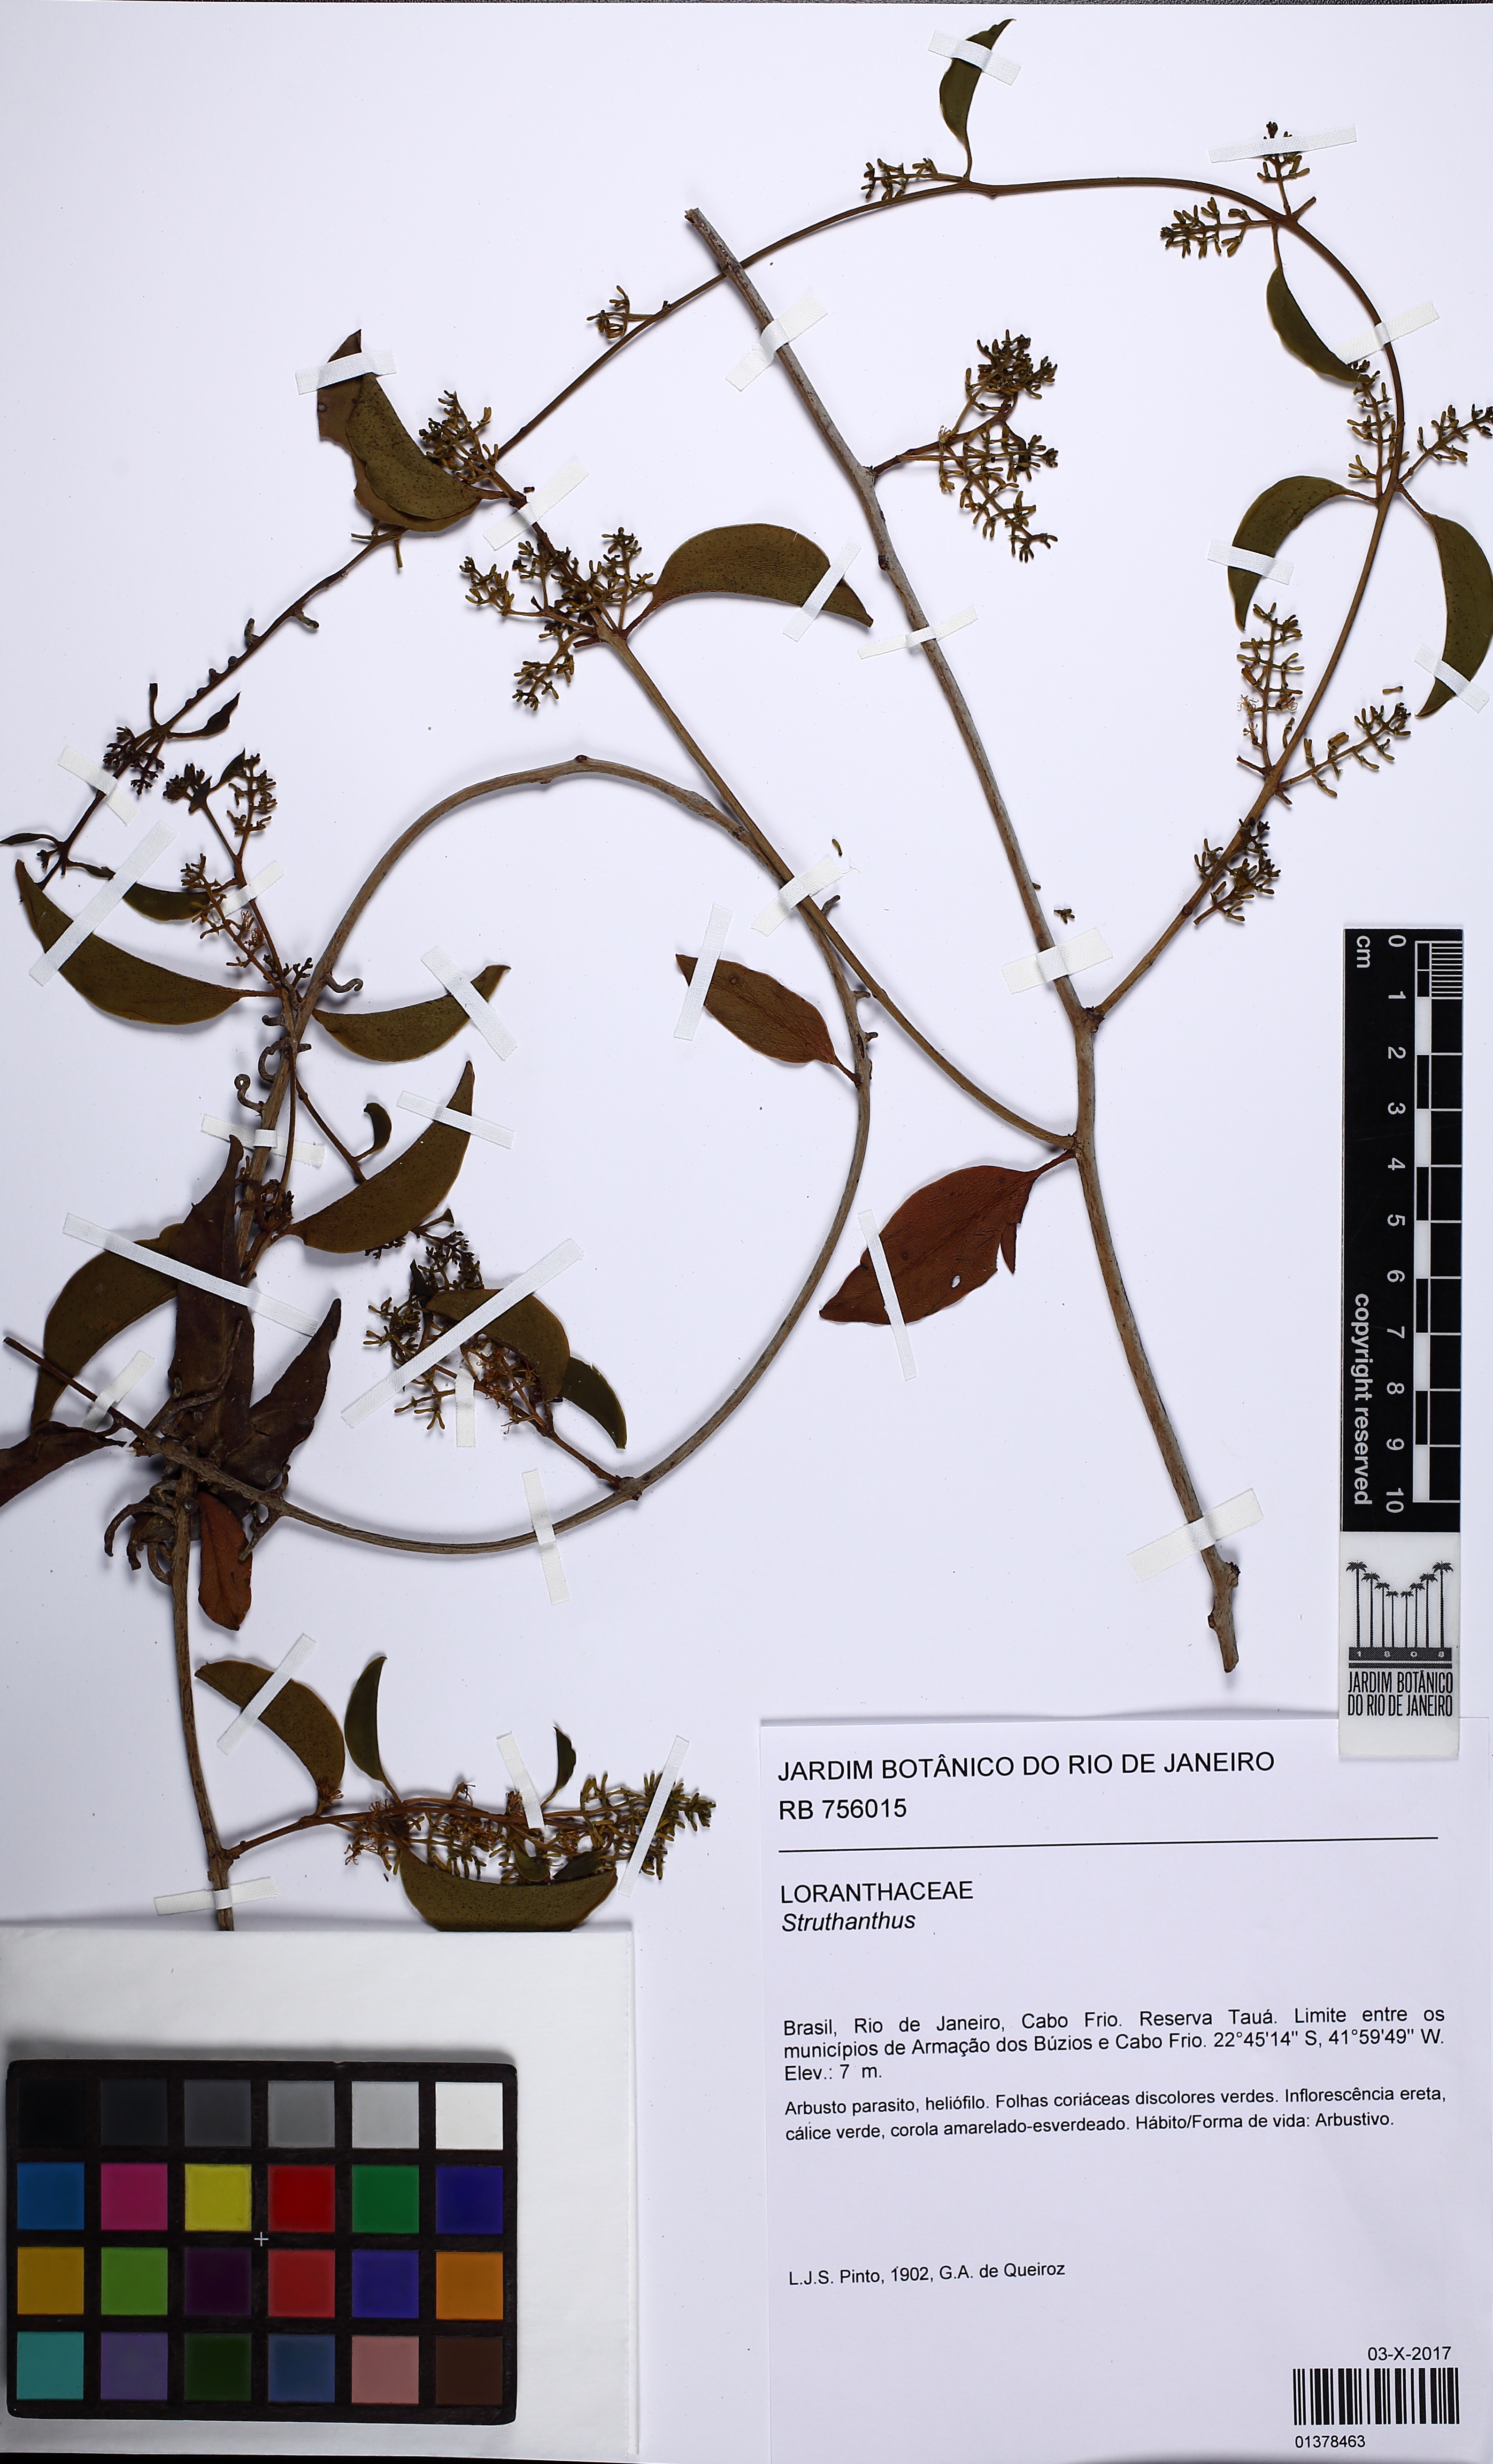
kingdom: Plantae
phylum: Tracheophyta
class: Magnoliopsida
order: Santalales
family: Loranthaceae
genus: Struthanthus
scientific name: Struthanthus
